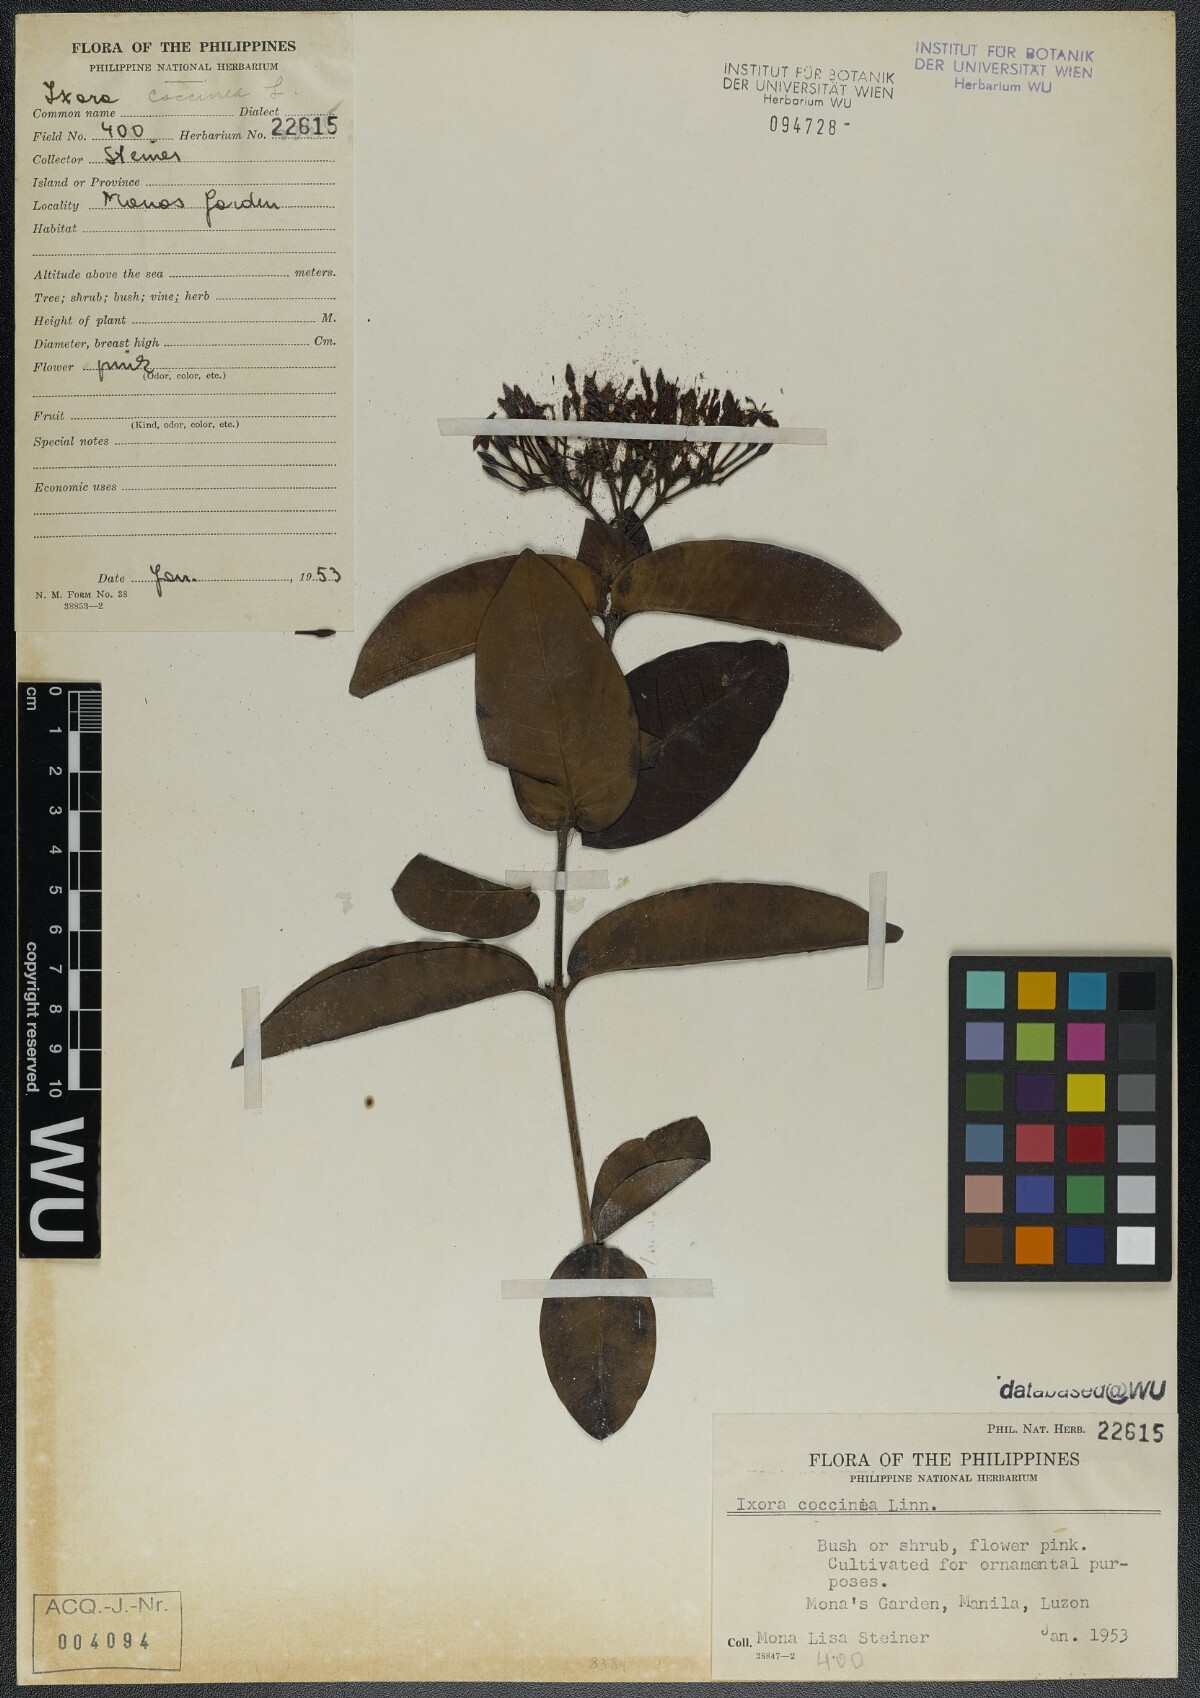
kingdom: Plantae
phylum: Tracheophyta
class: Magnoliopsida
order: Gentianales
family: Rubiaceae
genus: Ixora
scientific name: Ixora coccinea
